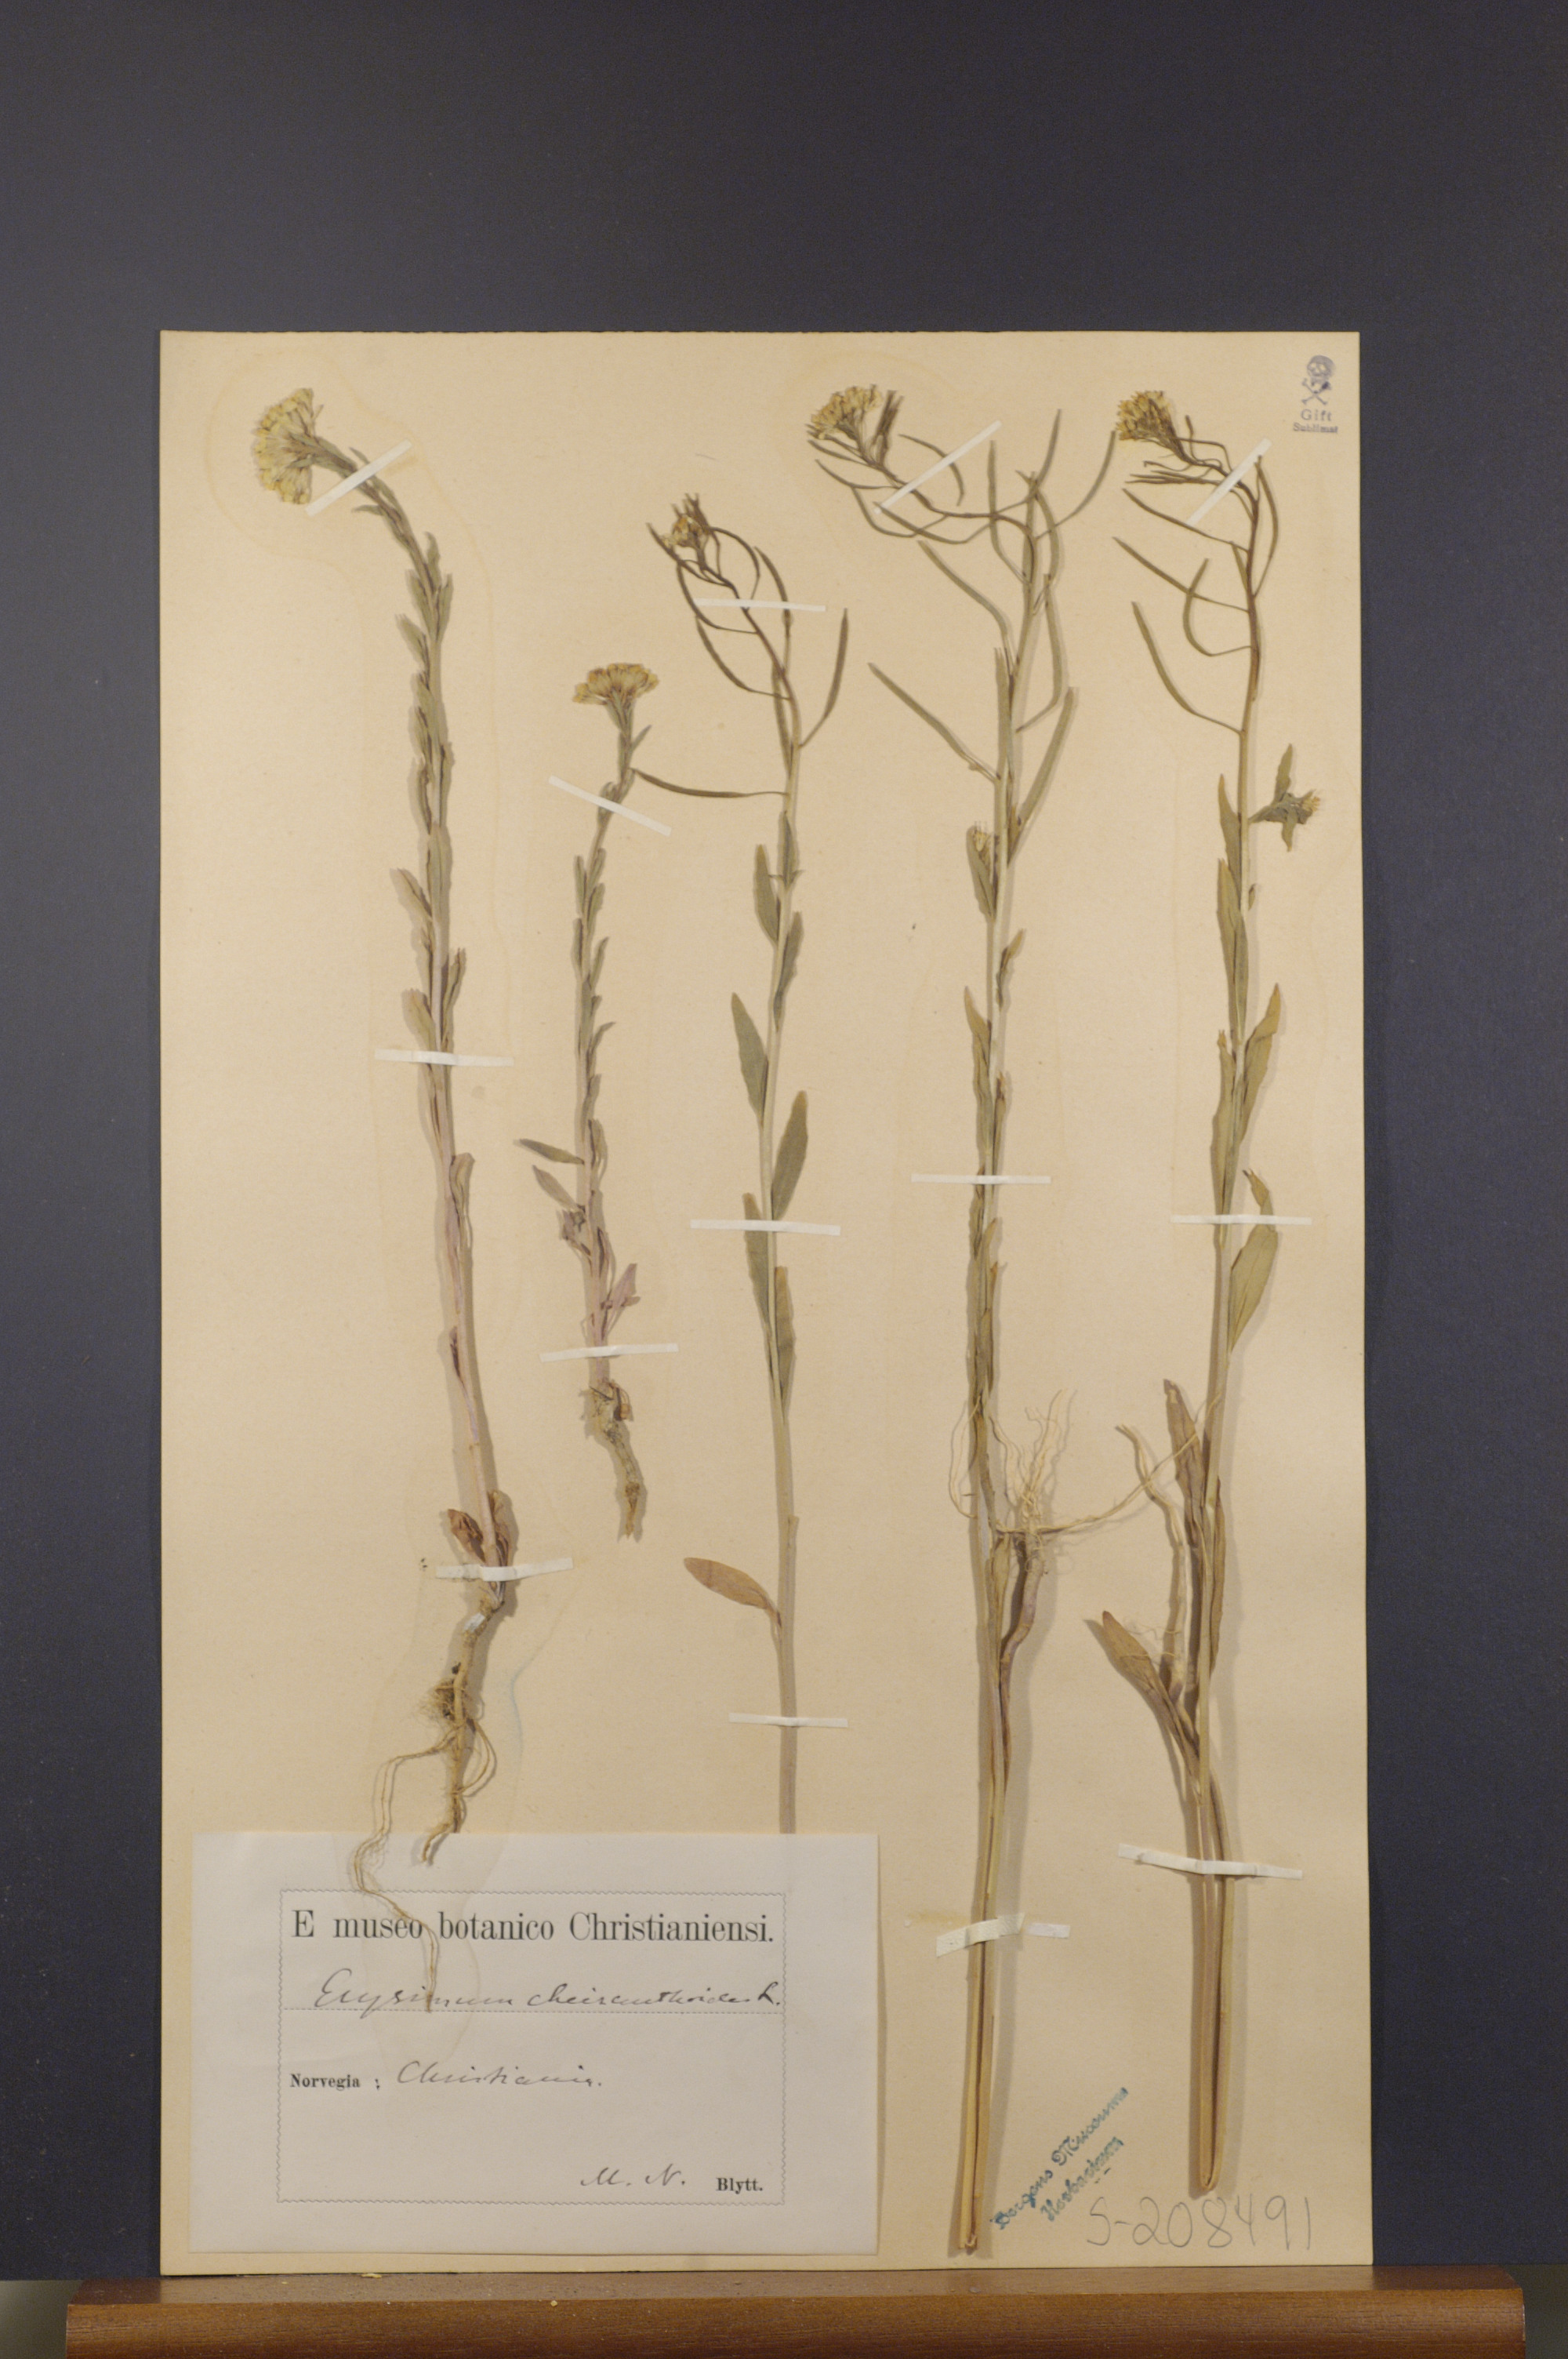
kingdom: Plantae
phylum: Tracheophyta
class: Magnoliopsida
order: Brassicales
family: Brassicaceae
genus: Erysimum
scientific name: Erysimum cheiranthoides
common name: Treacle mustard
